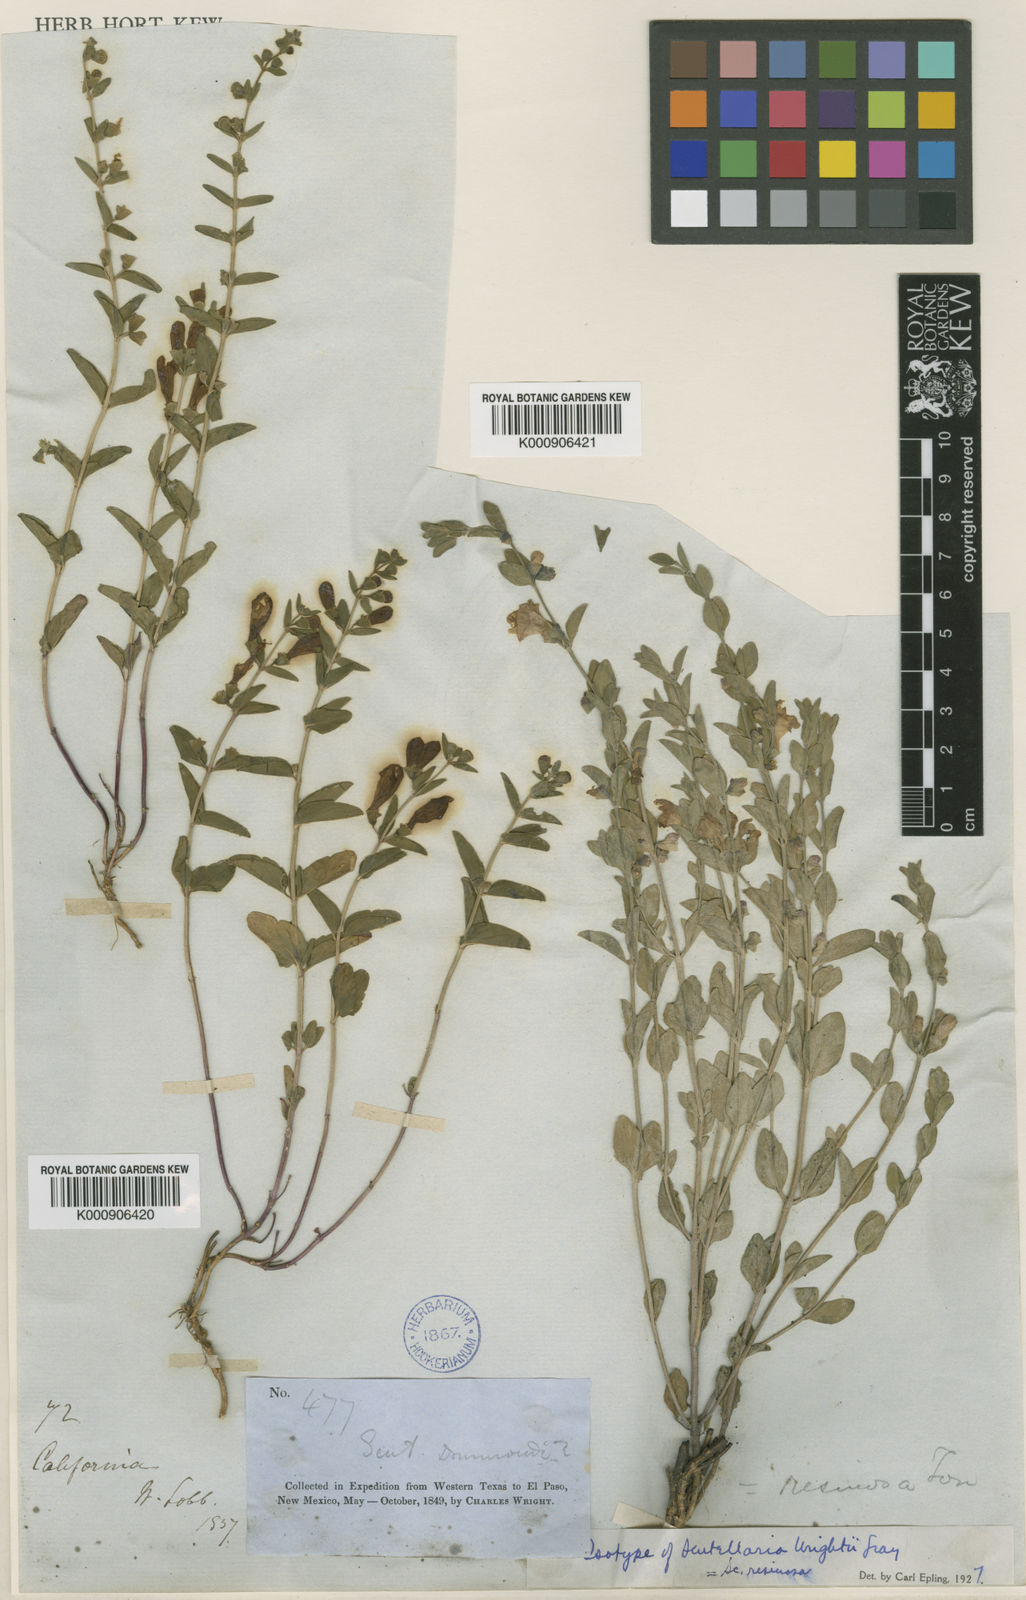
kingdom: Plantae
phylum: Tracheophyta
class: Magnoliopsida
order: Lamiales
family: Lamiaceae
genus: Scutellaria
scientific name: Scutellaria wrightii
